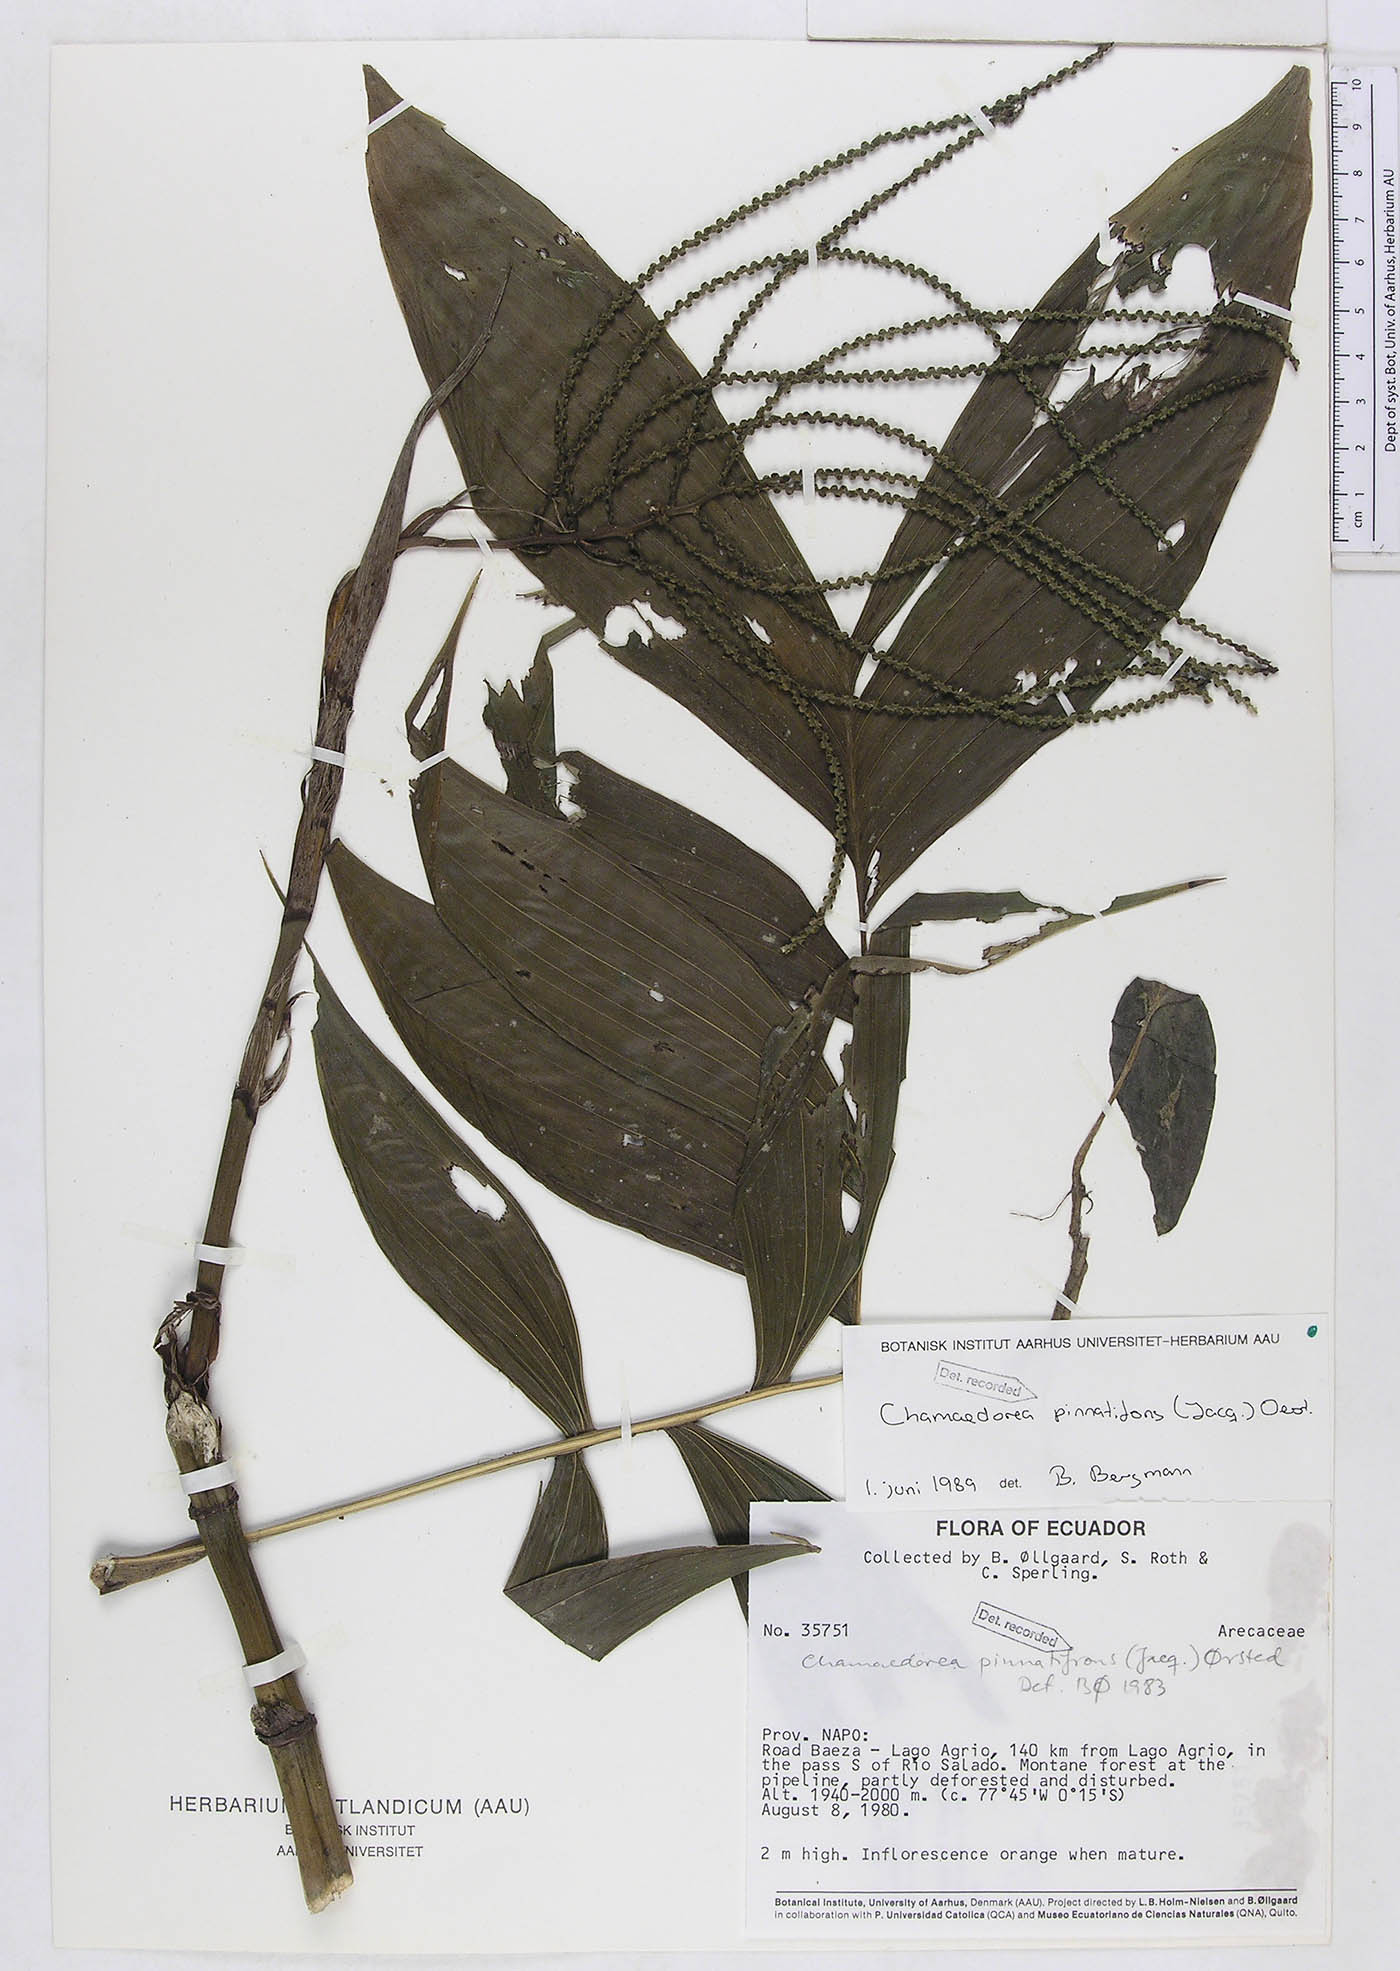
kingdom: Plantae
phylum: Tracheophyta
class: Liliopsida
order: Arecales
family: Arecaceae
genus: Chamaedorea
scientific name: Chamaedorea pinnatifrons
